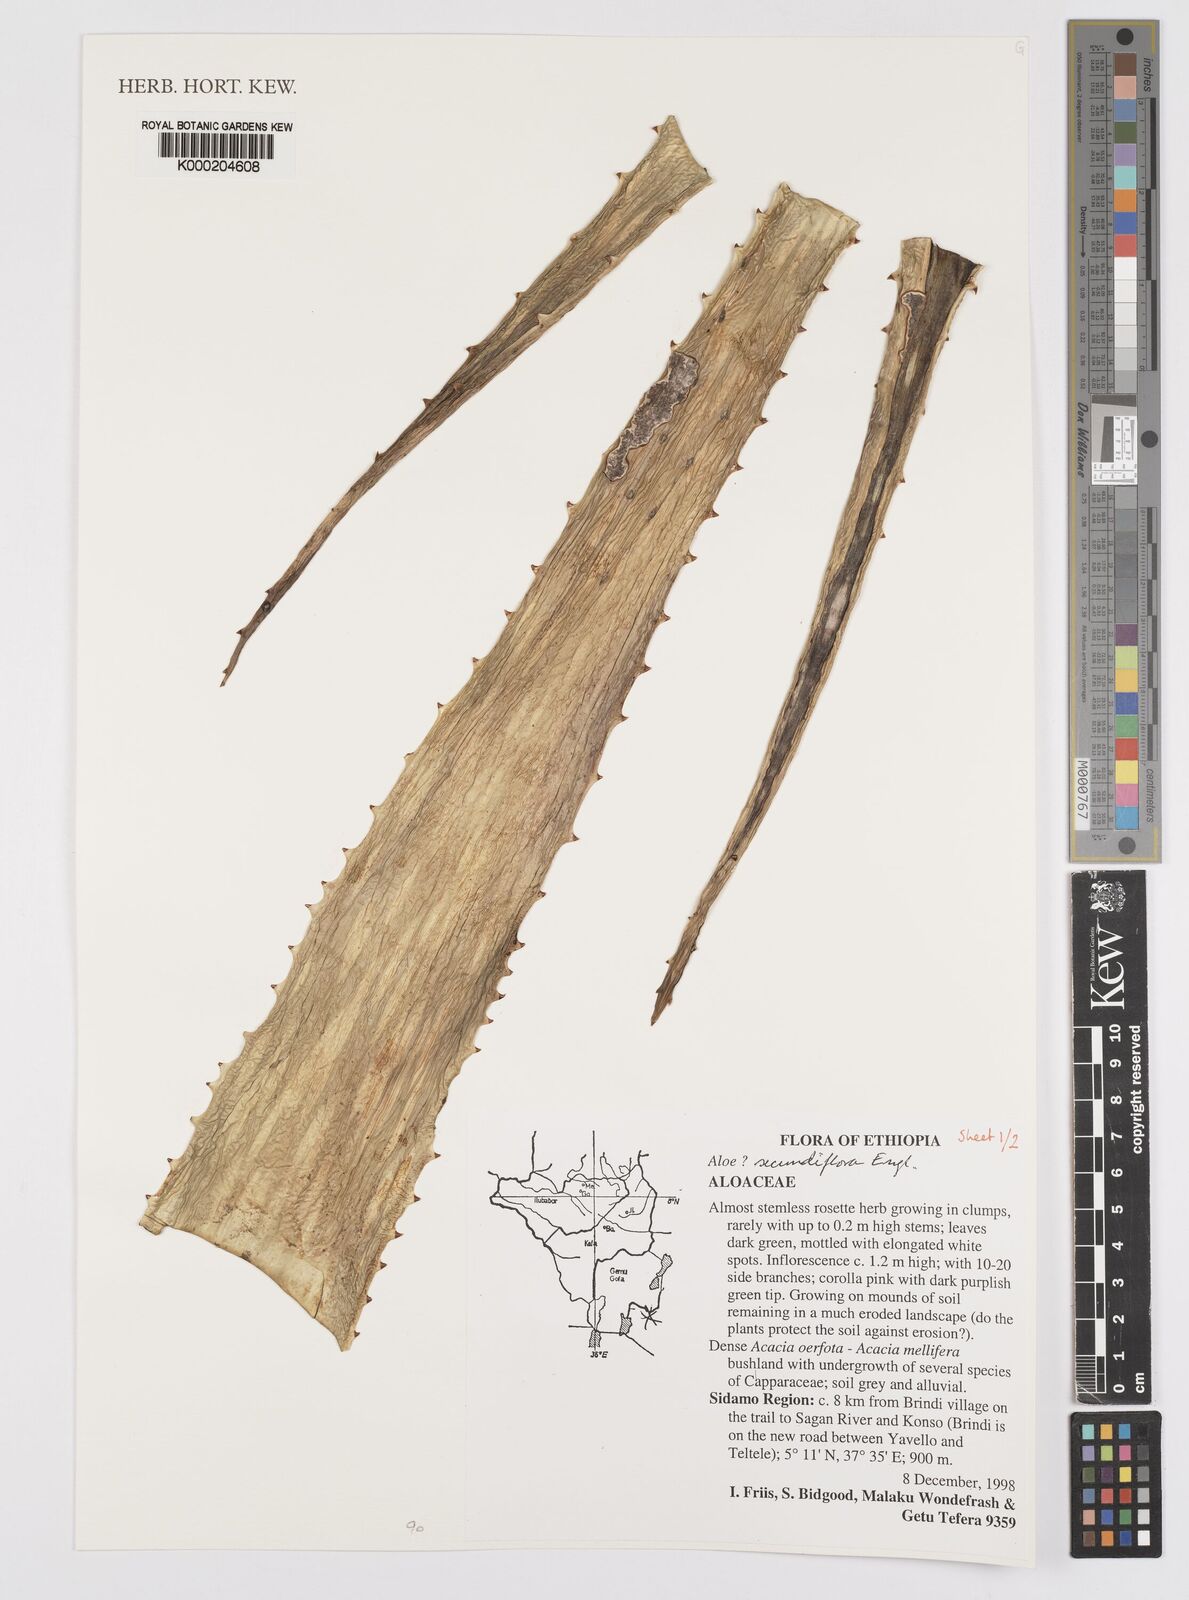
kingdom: Plantae
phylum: Tracheophyta
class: Liliopsida
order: Asparagales
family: Asphodelaceae
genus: Aloe
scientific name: Aloe secundiflora
